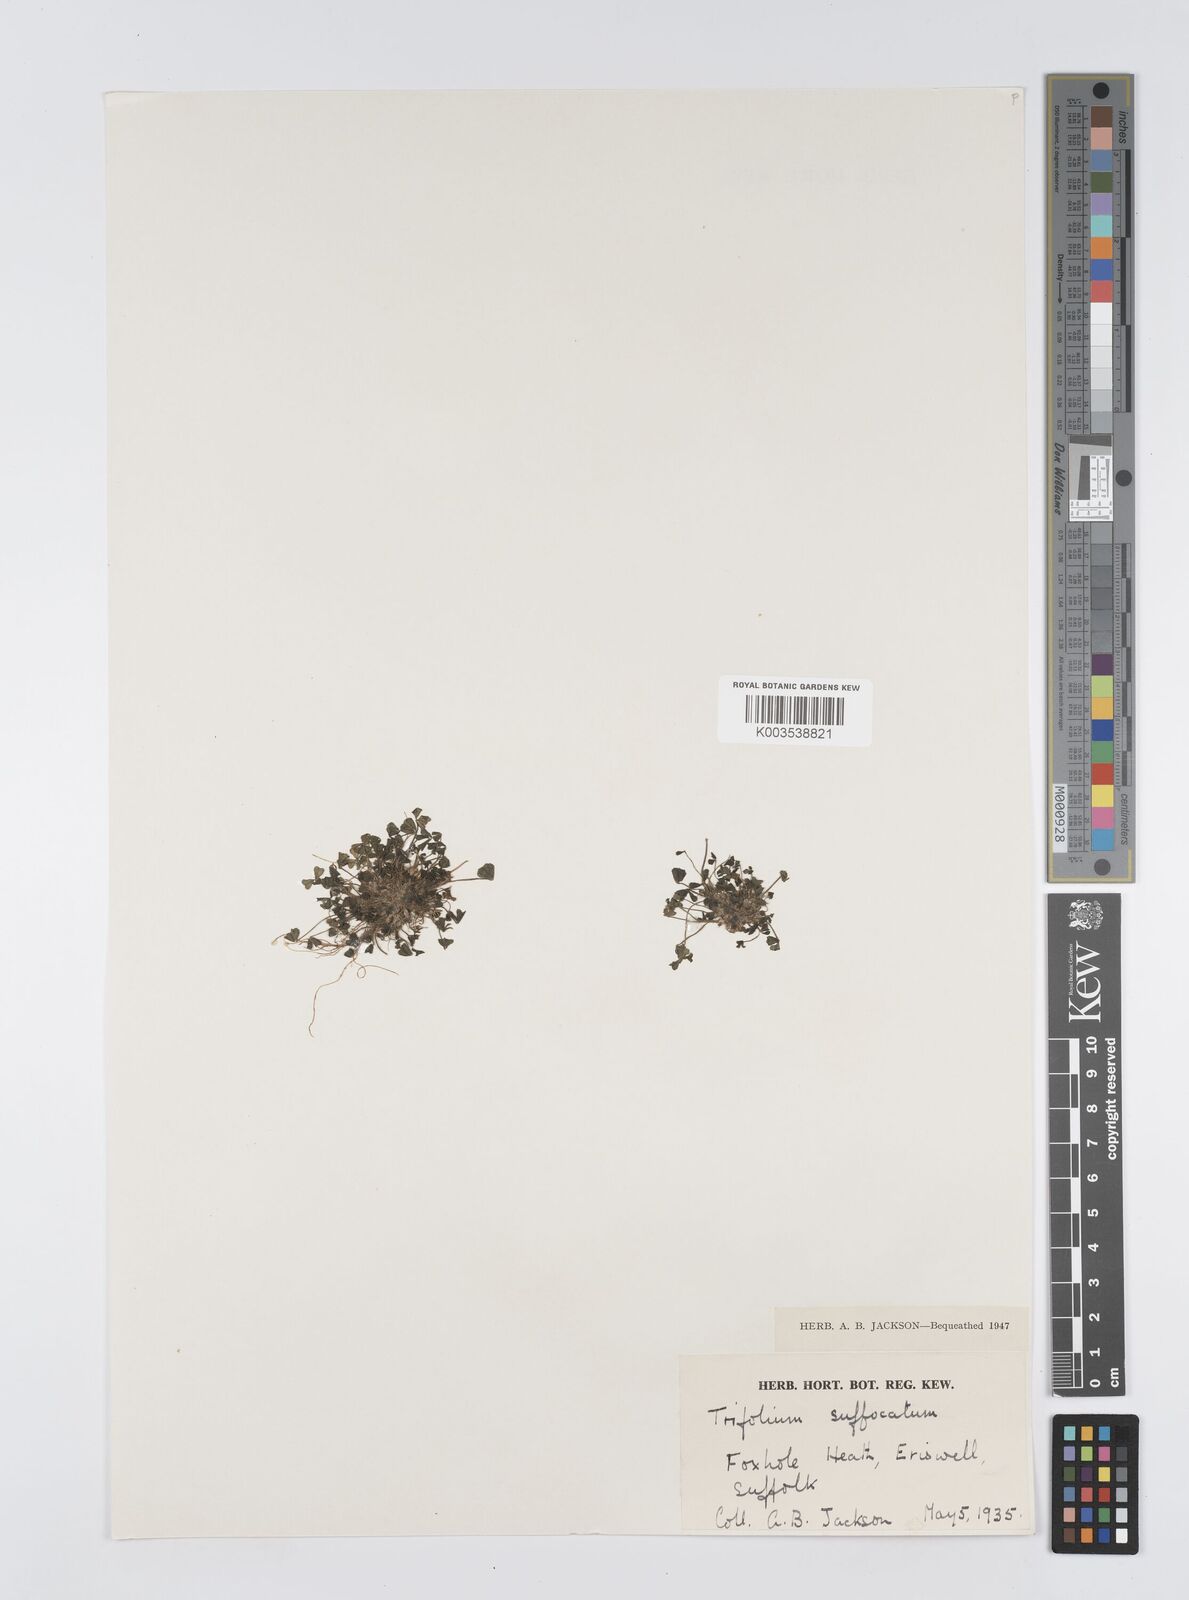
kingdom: Plantae
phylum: Tracheophyta
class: Magnoliopsida
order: Fabales
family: Fabaceae
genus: Trifolium
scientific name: Trifolium suffocatum
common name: Suffocated clover
